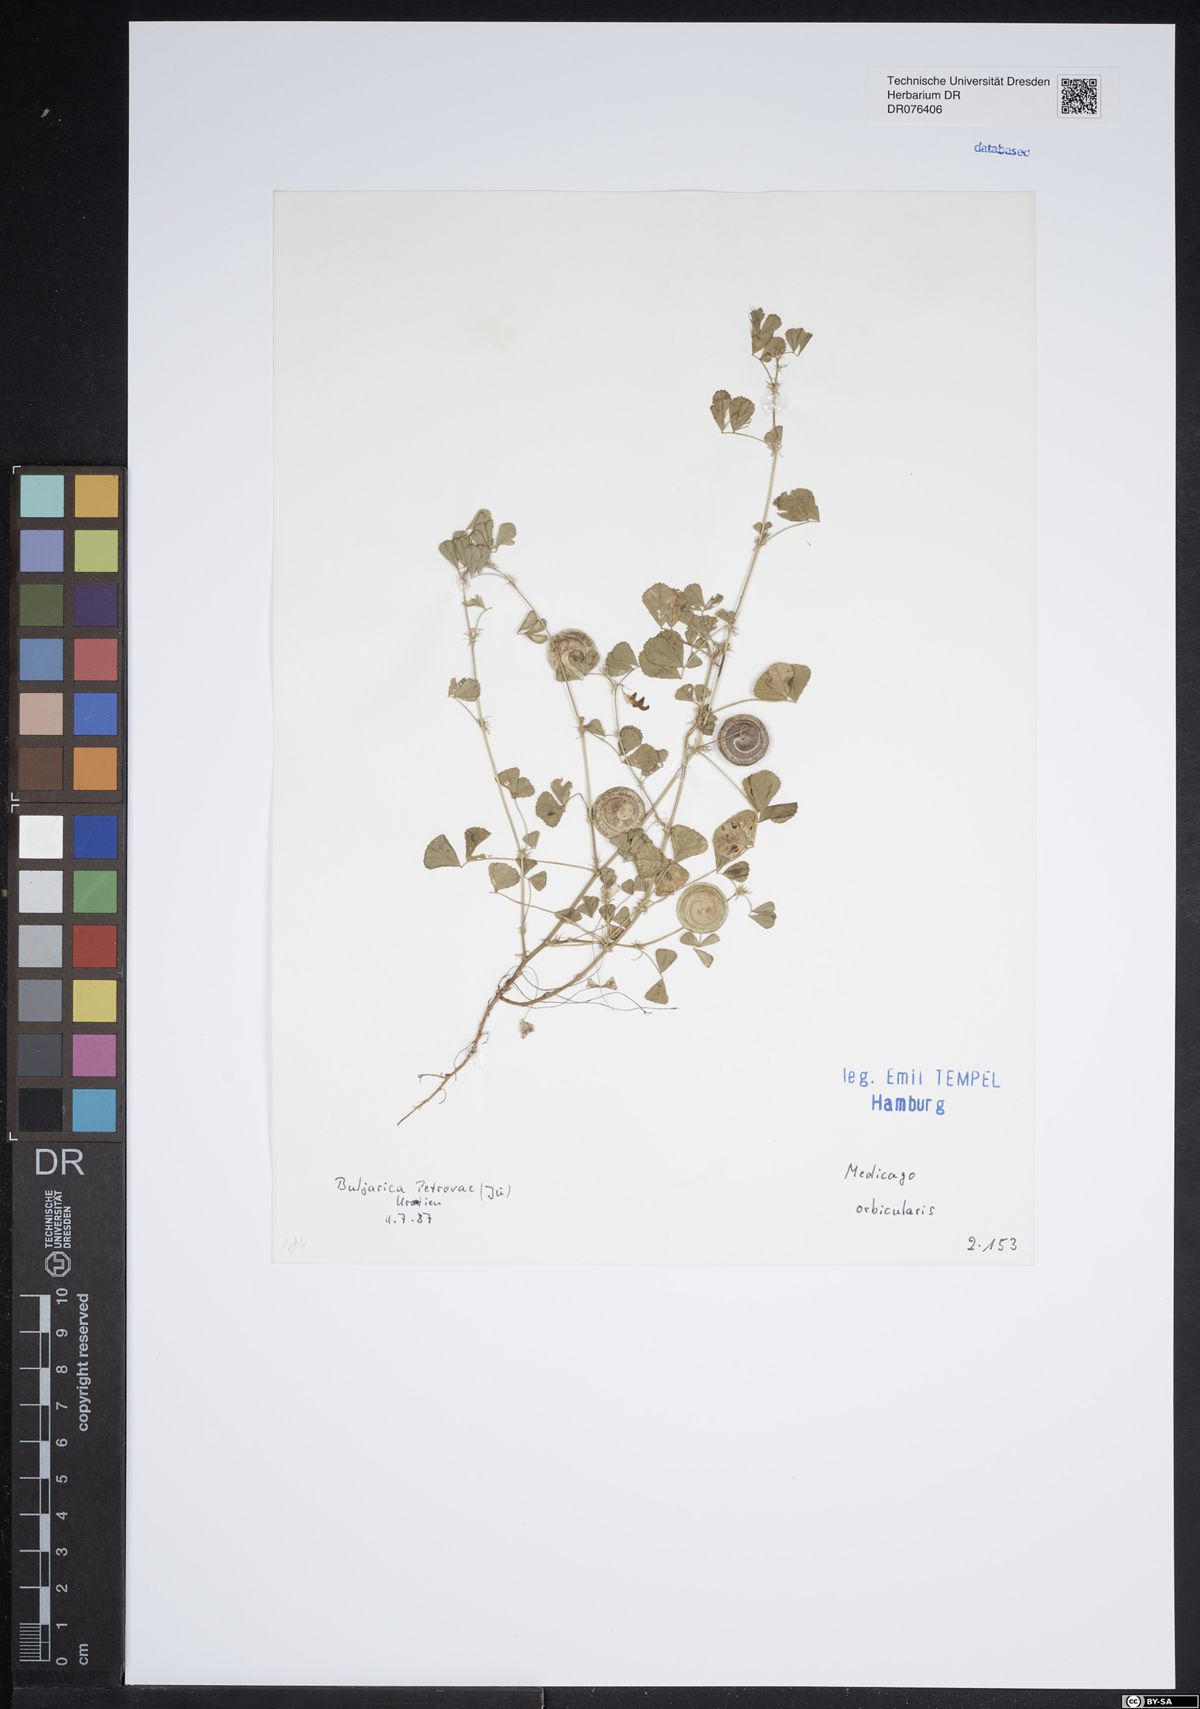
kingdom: Plantae
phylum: Tracheophyta
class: Magnoliopsida
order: Fabales
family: Fabaceae
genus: Medicago
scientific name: Medicago orbicularis
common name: Button medick
